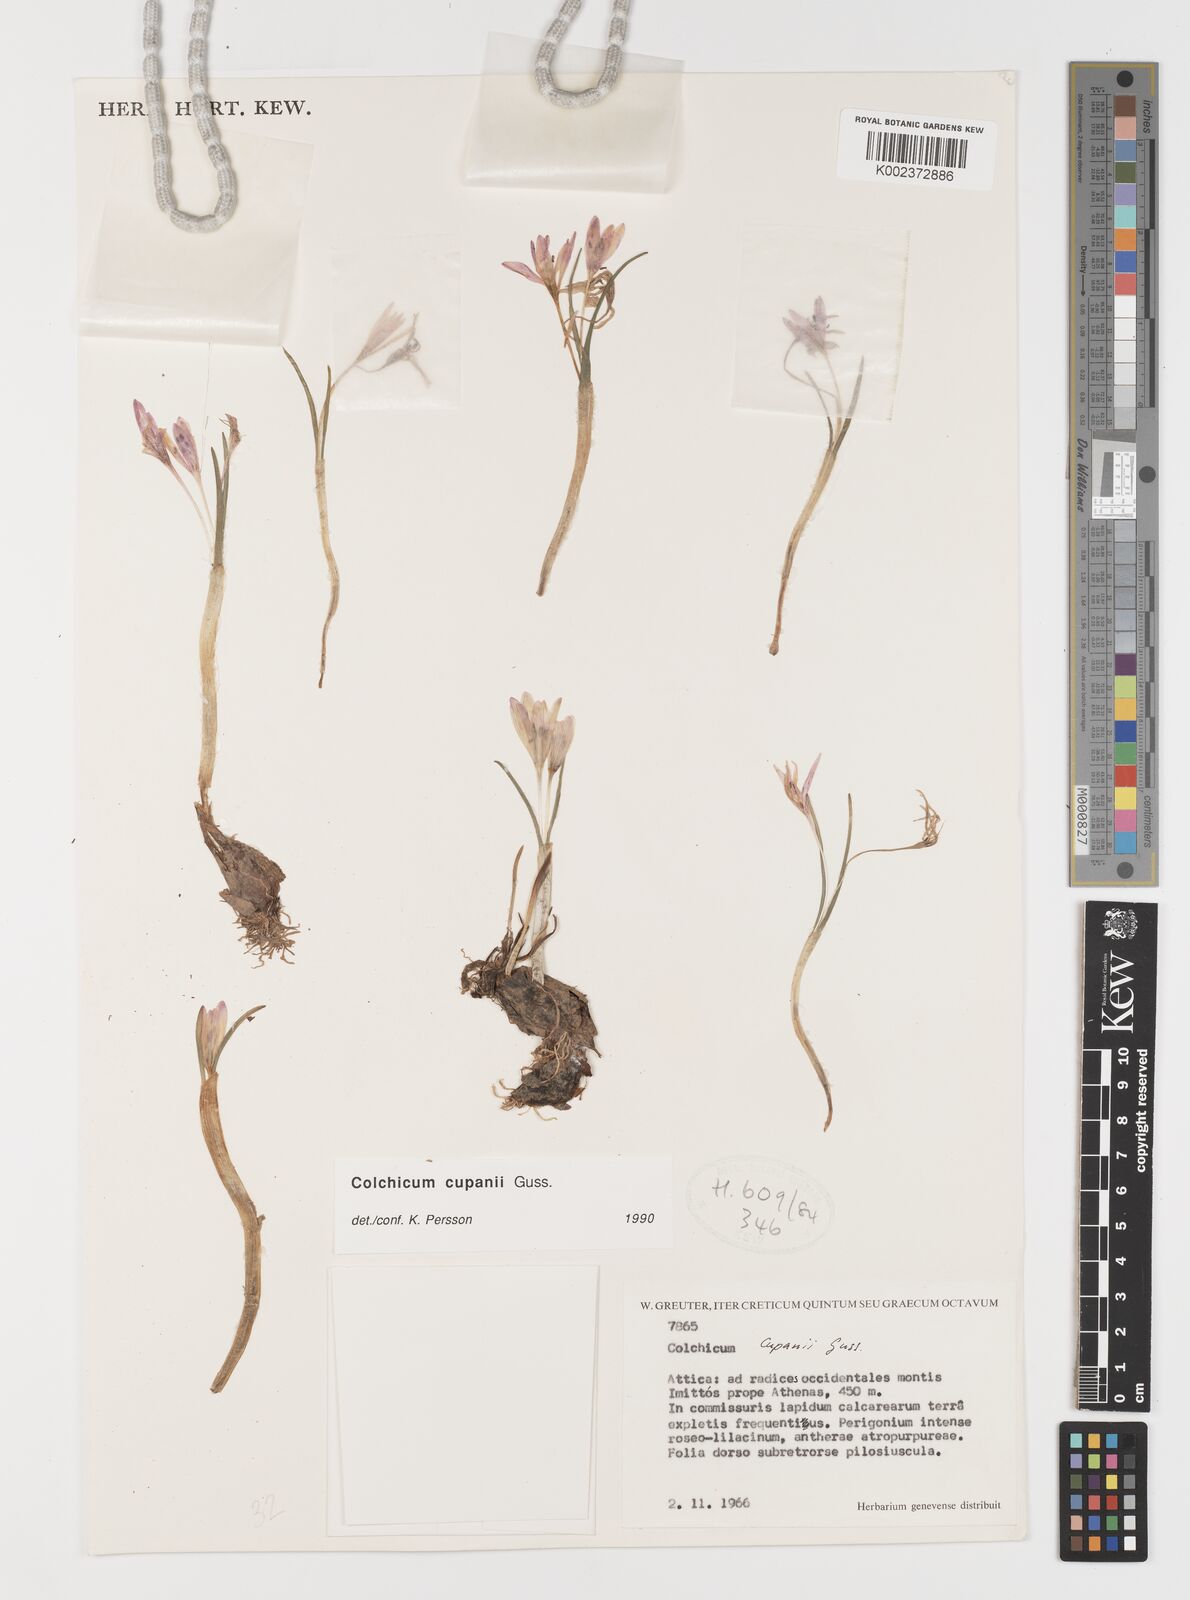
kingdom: Plantae
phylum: Tracheophyta
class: Liliopsida
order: Liliales
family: Colchicaceae
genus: Colchicum
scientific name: Colchicum cupanii
